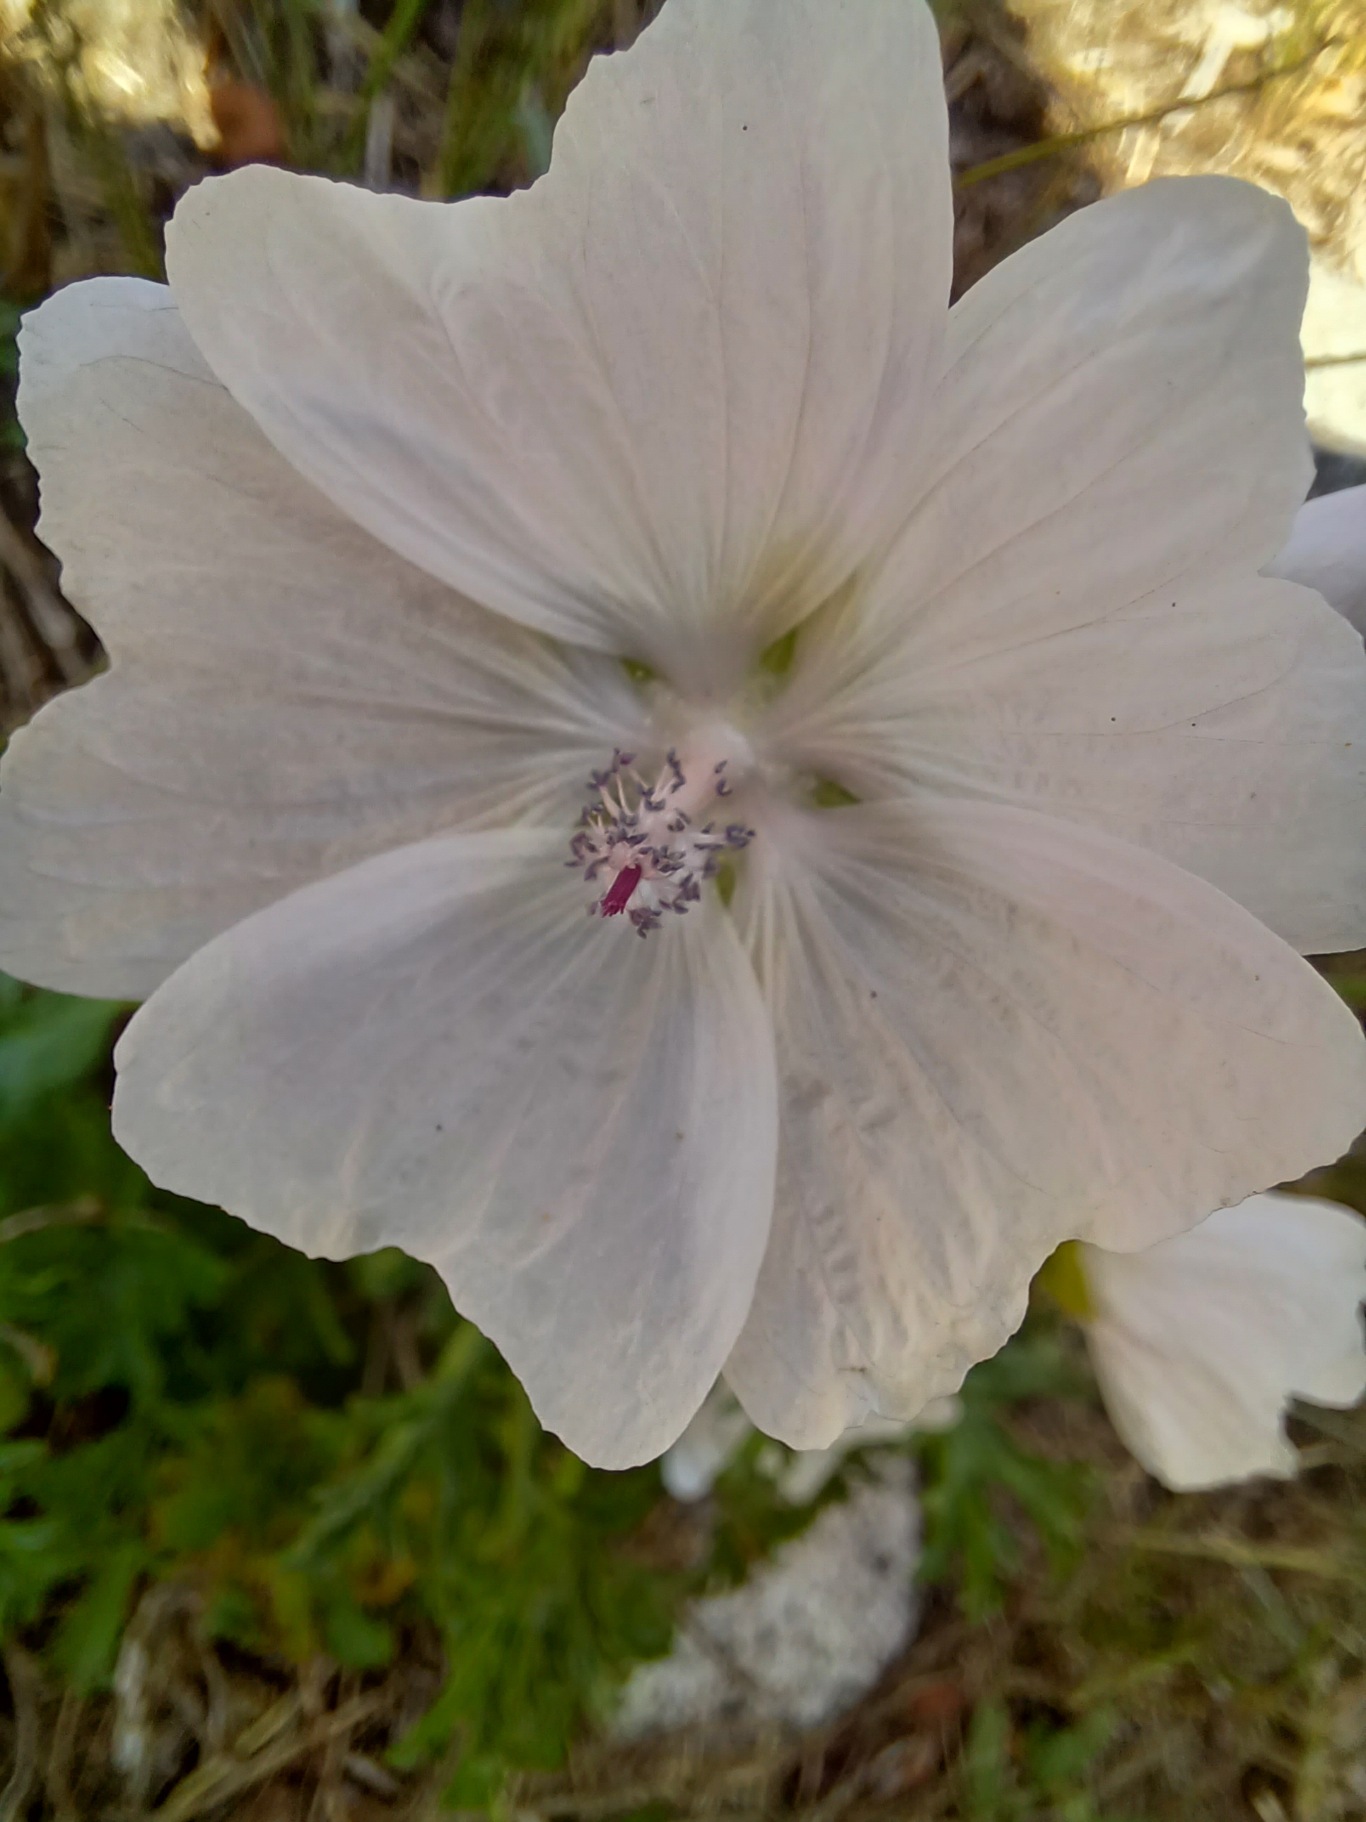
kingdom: Plantae
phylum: Tracheophyta
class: Magnoliopsida
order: Malvales
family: Malvaceae
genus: Malva
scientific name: Malva moschata
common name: Moskus-katost
